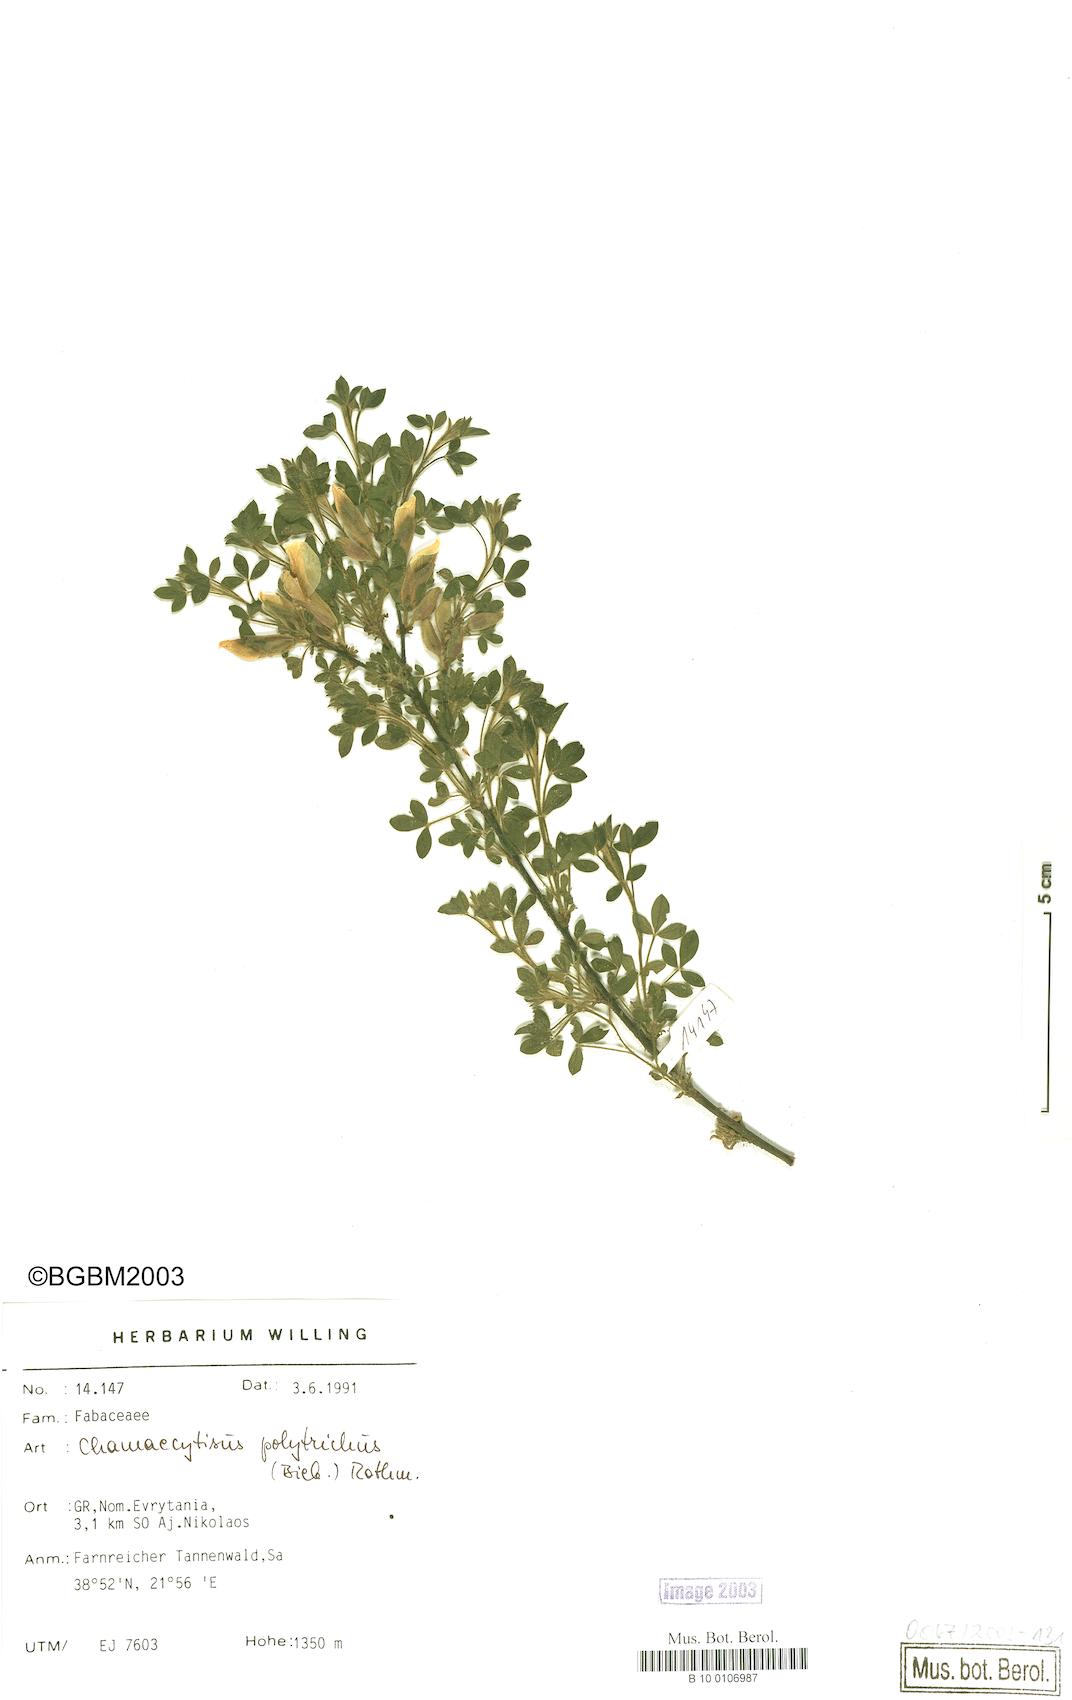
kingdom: Plantae
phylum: Tracheophyta
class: Magnoliopsida
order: Fabales
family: Fabaceae
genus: Chamaecytisus
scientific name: Chamaecytisus hirsutus
